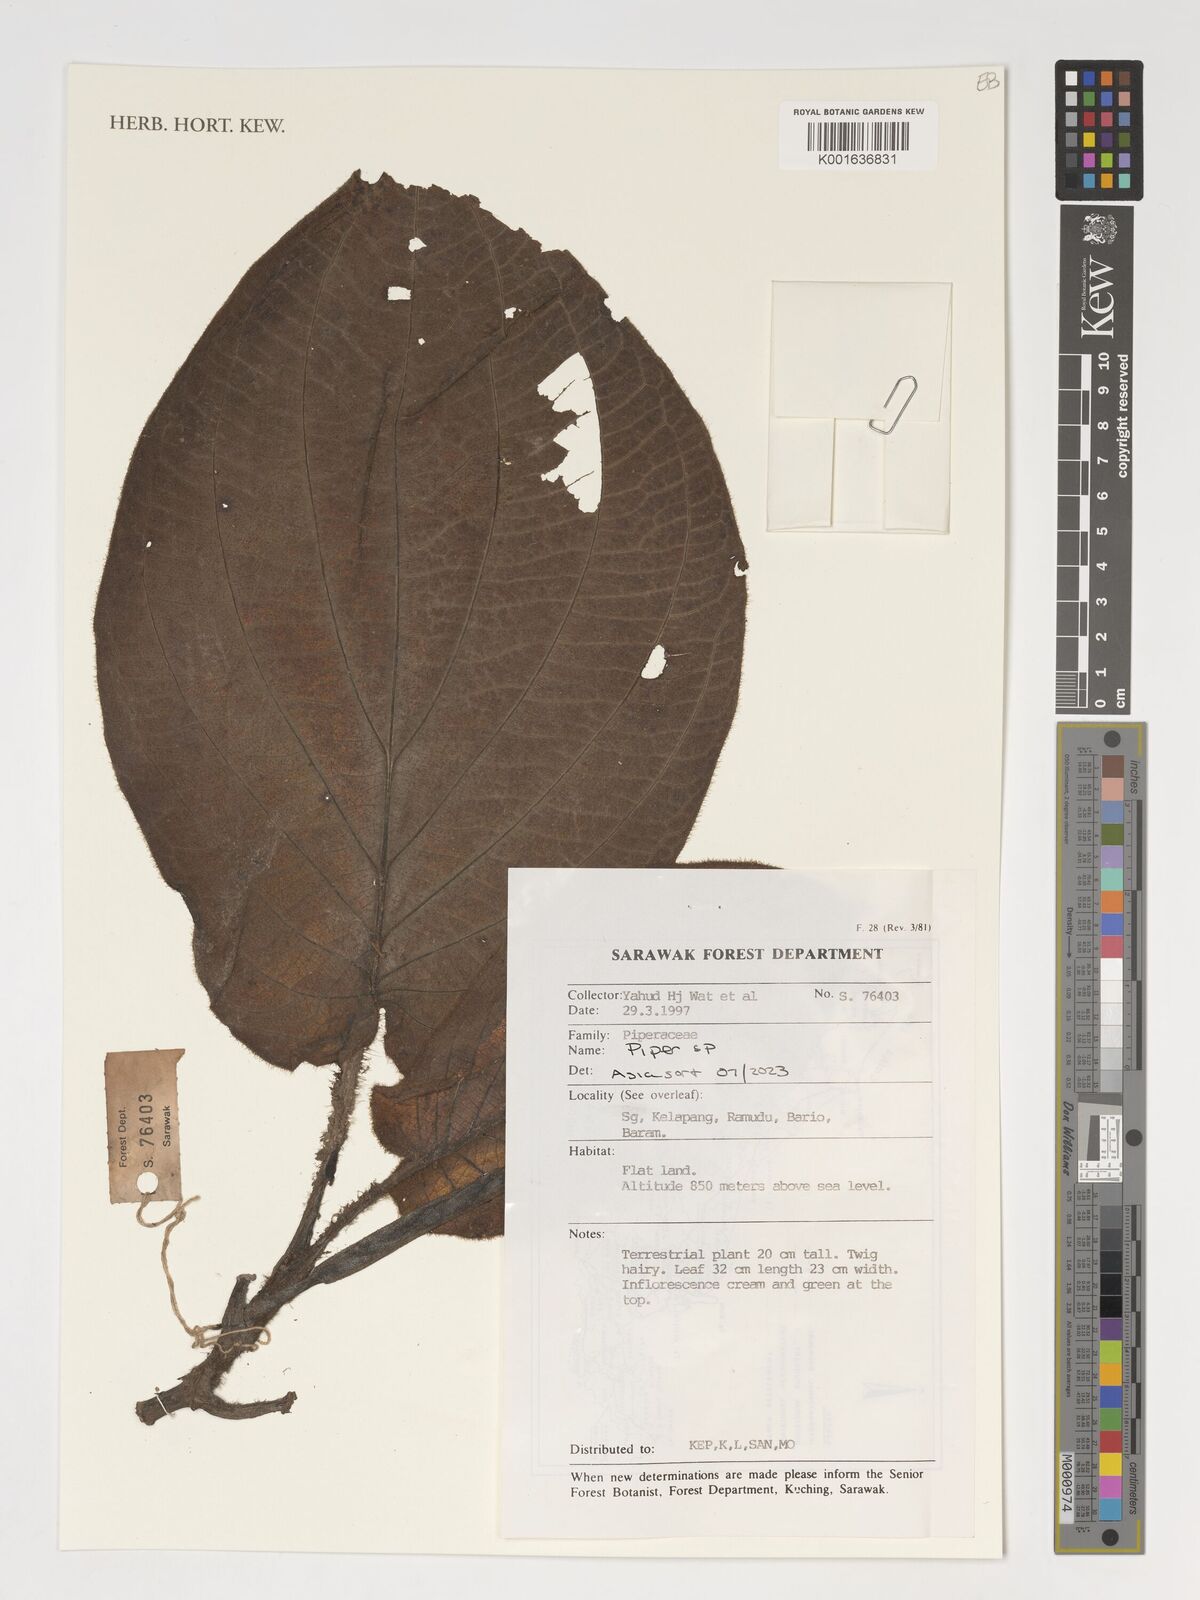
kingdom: Plantae
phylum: Tracheophyta
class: Magnoliopsida
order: Piperales
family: Piperaceae
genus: Piper
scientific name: Piper
